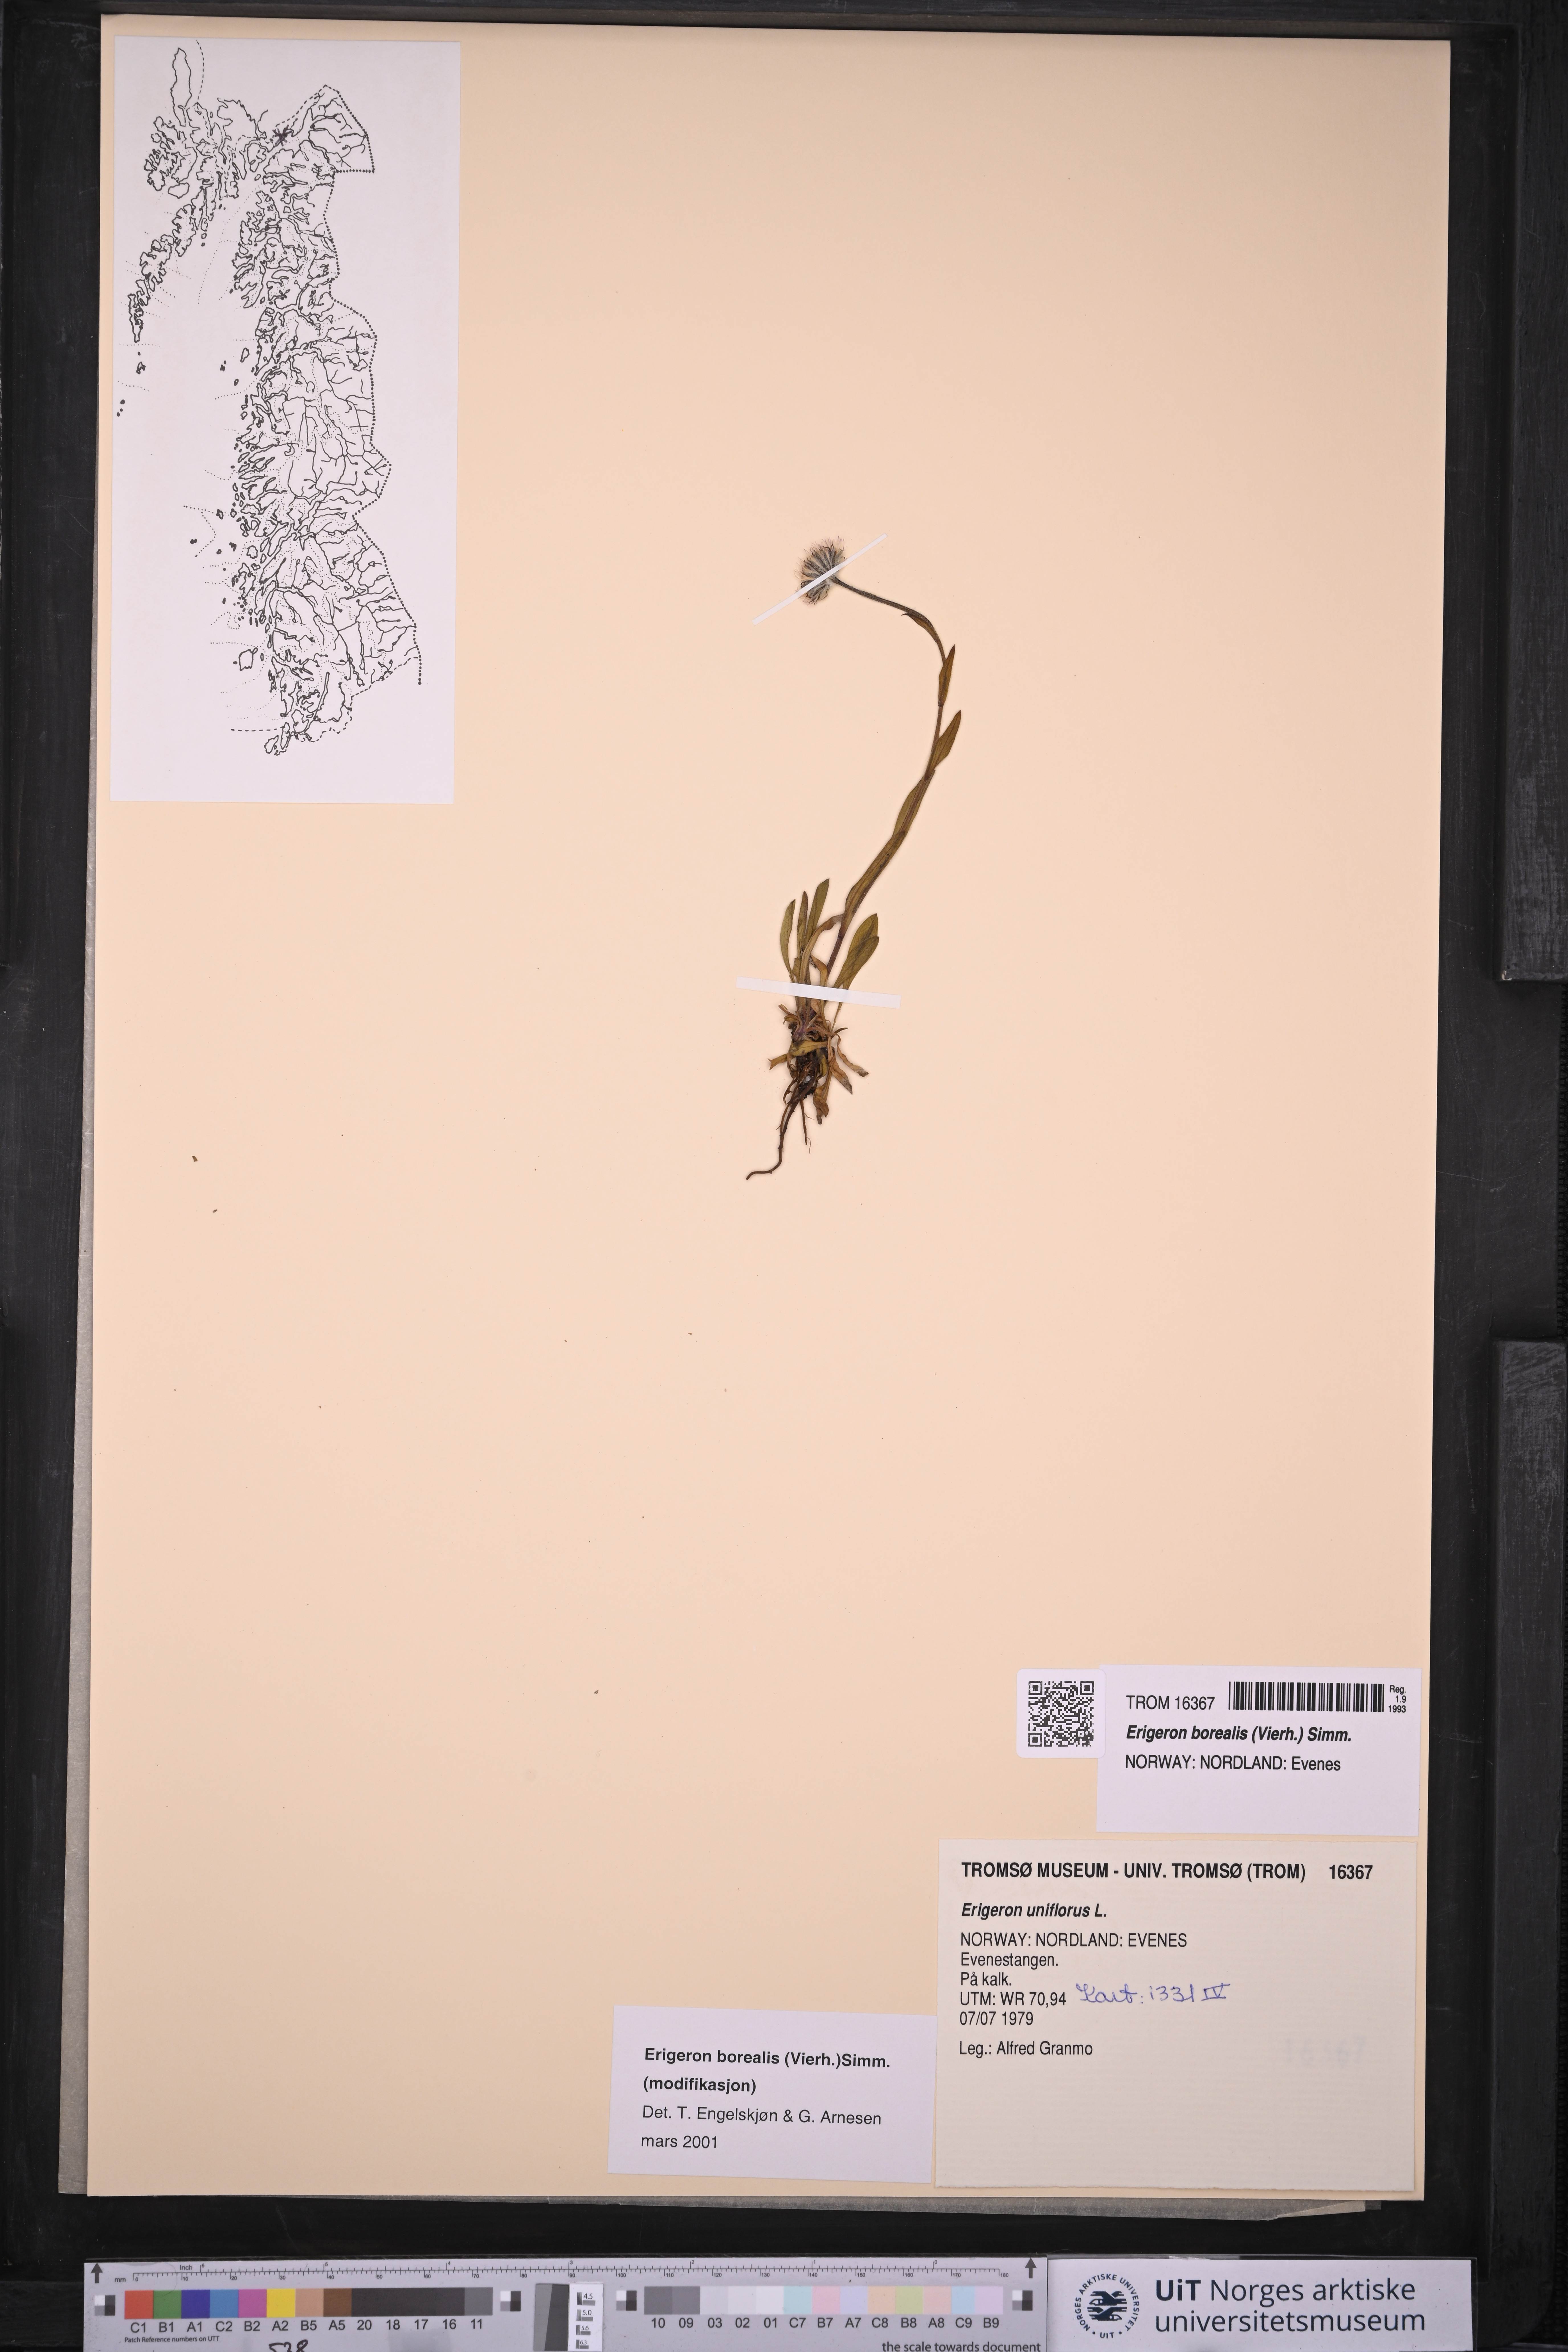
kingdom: Plantae
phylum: Tracheophyta
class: Magnoliopsida
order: Asterales
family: Asteraceae
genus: Erigeron
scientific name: Erigeron borealis
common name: Alpine fleabane
